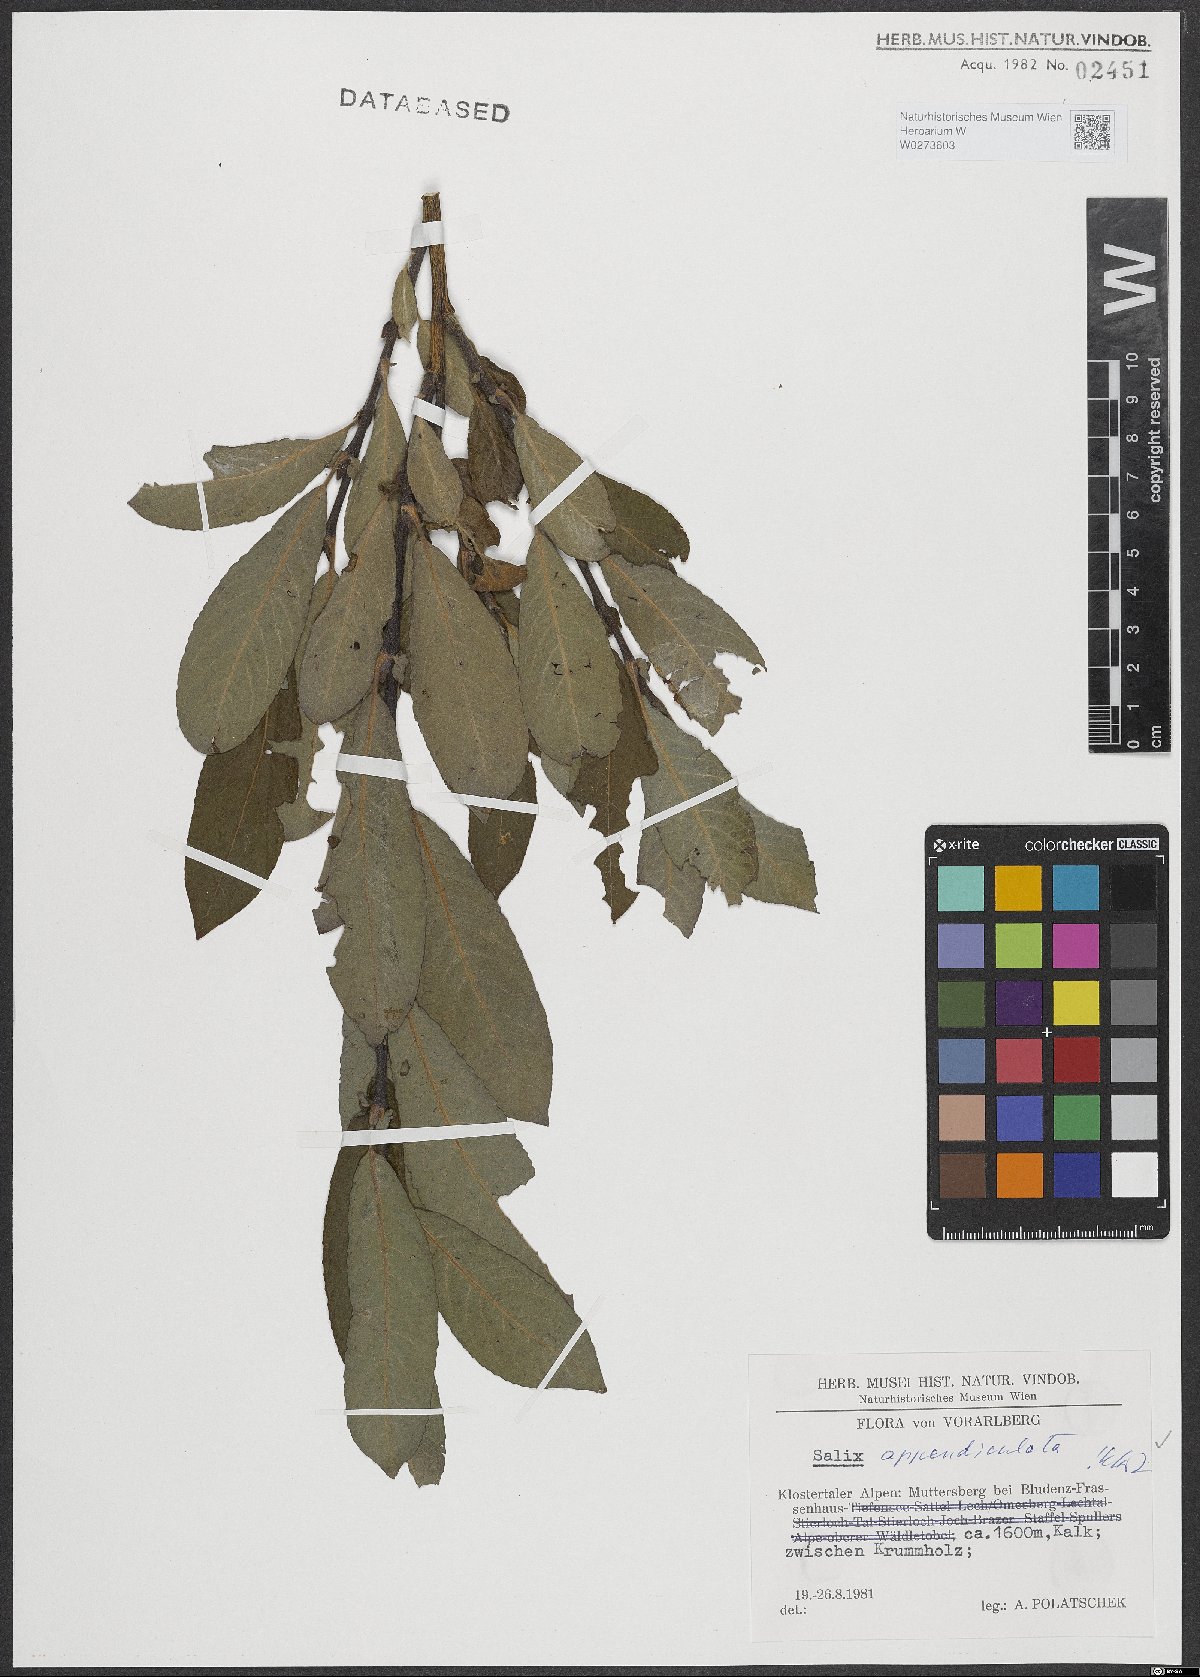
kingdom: Plantae
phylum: Tracheophyta
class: Magnoliopsida
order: Malpighiales
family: Salicaceae
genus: Salix
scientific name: Salix appendiculata
